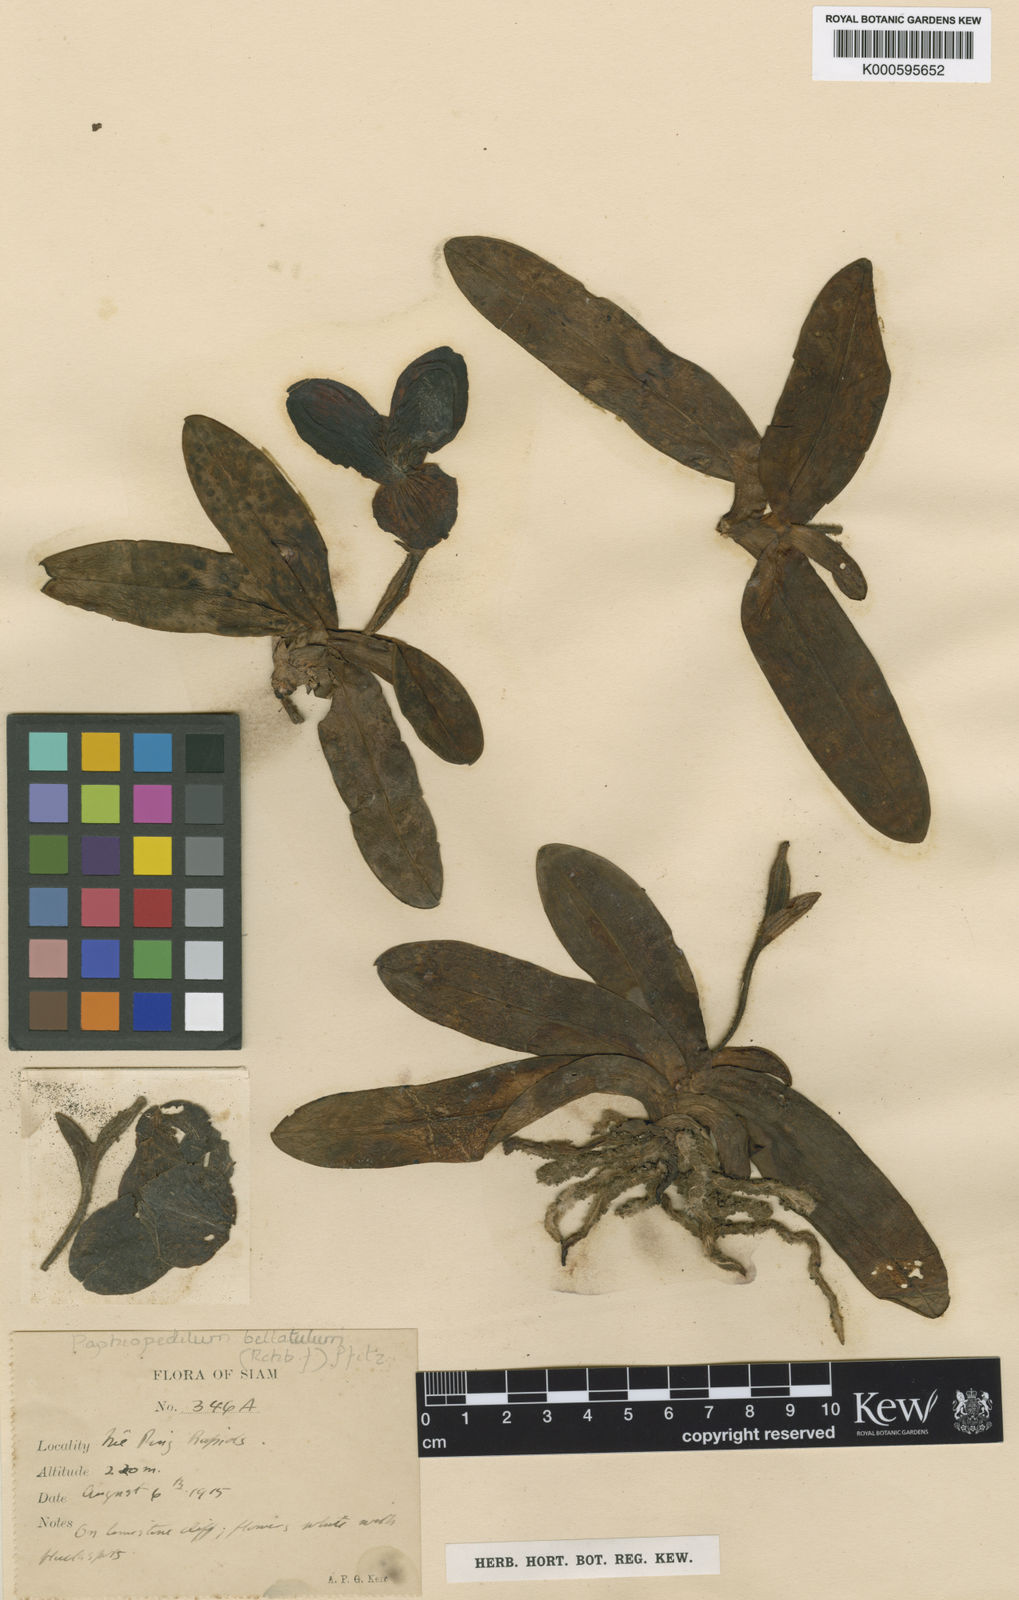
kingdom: Plantae
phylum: Tracheophyta
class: Liliopsida
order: Asparagales
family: Orchidaceae
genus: Paphiopedilum
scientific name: Paphiopedilum
